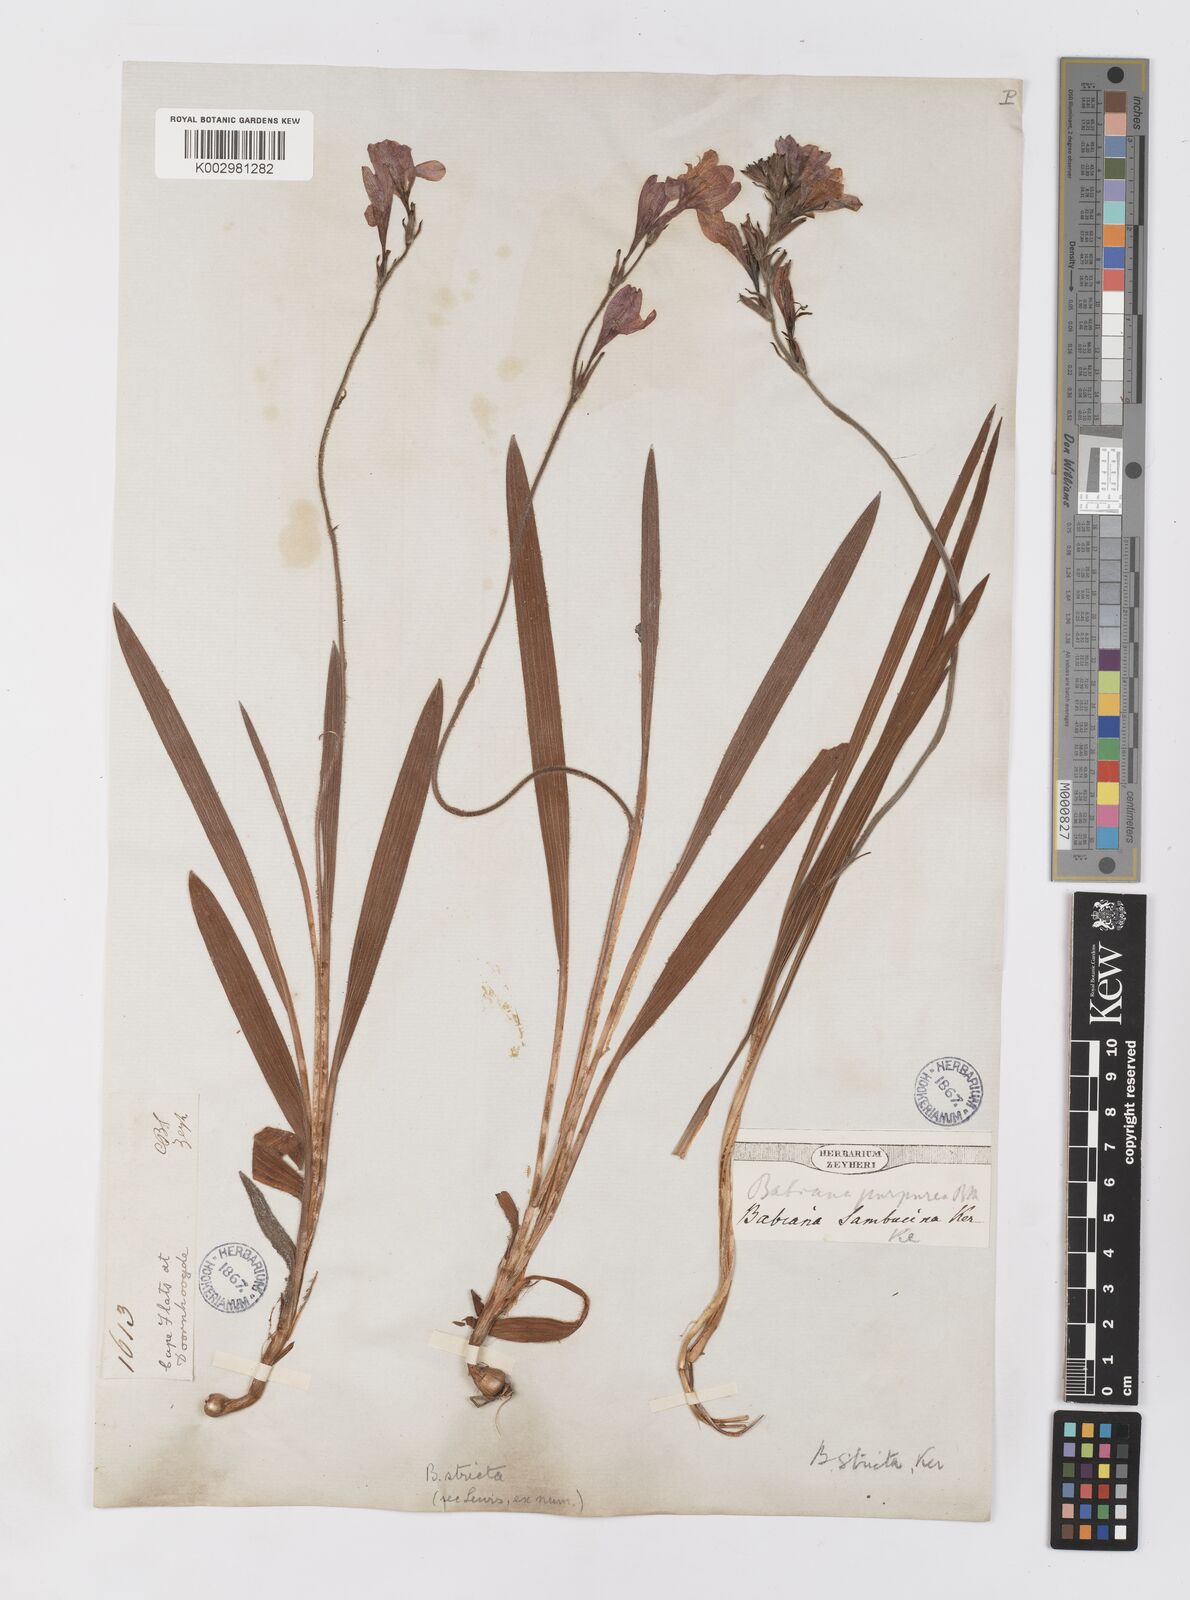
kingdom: Plantae
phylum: Tracheophyta
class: Liliopsida
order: Asparagales
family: Iridaceae
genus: Babiana
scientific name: Babiana regia
